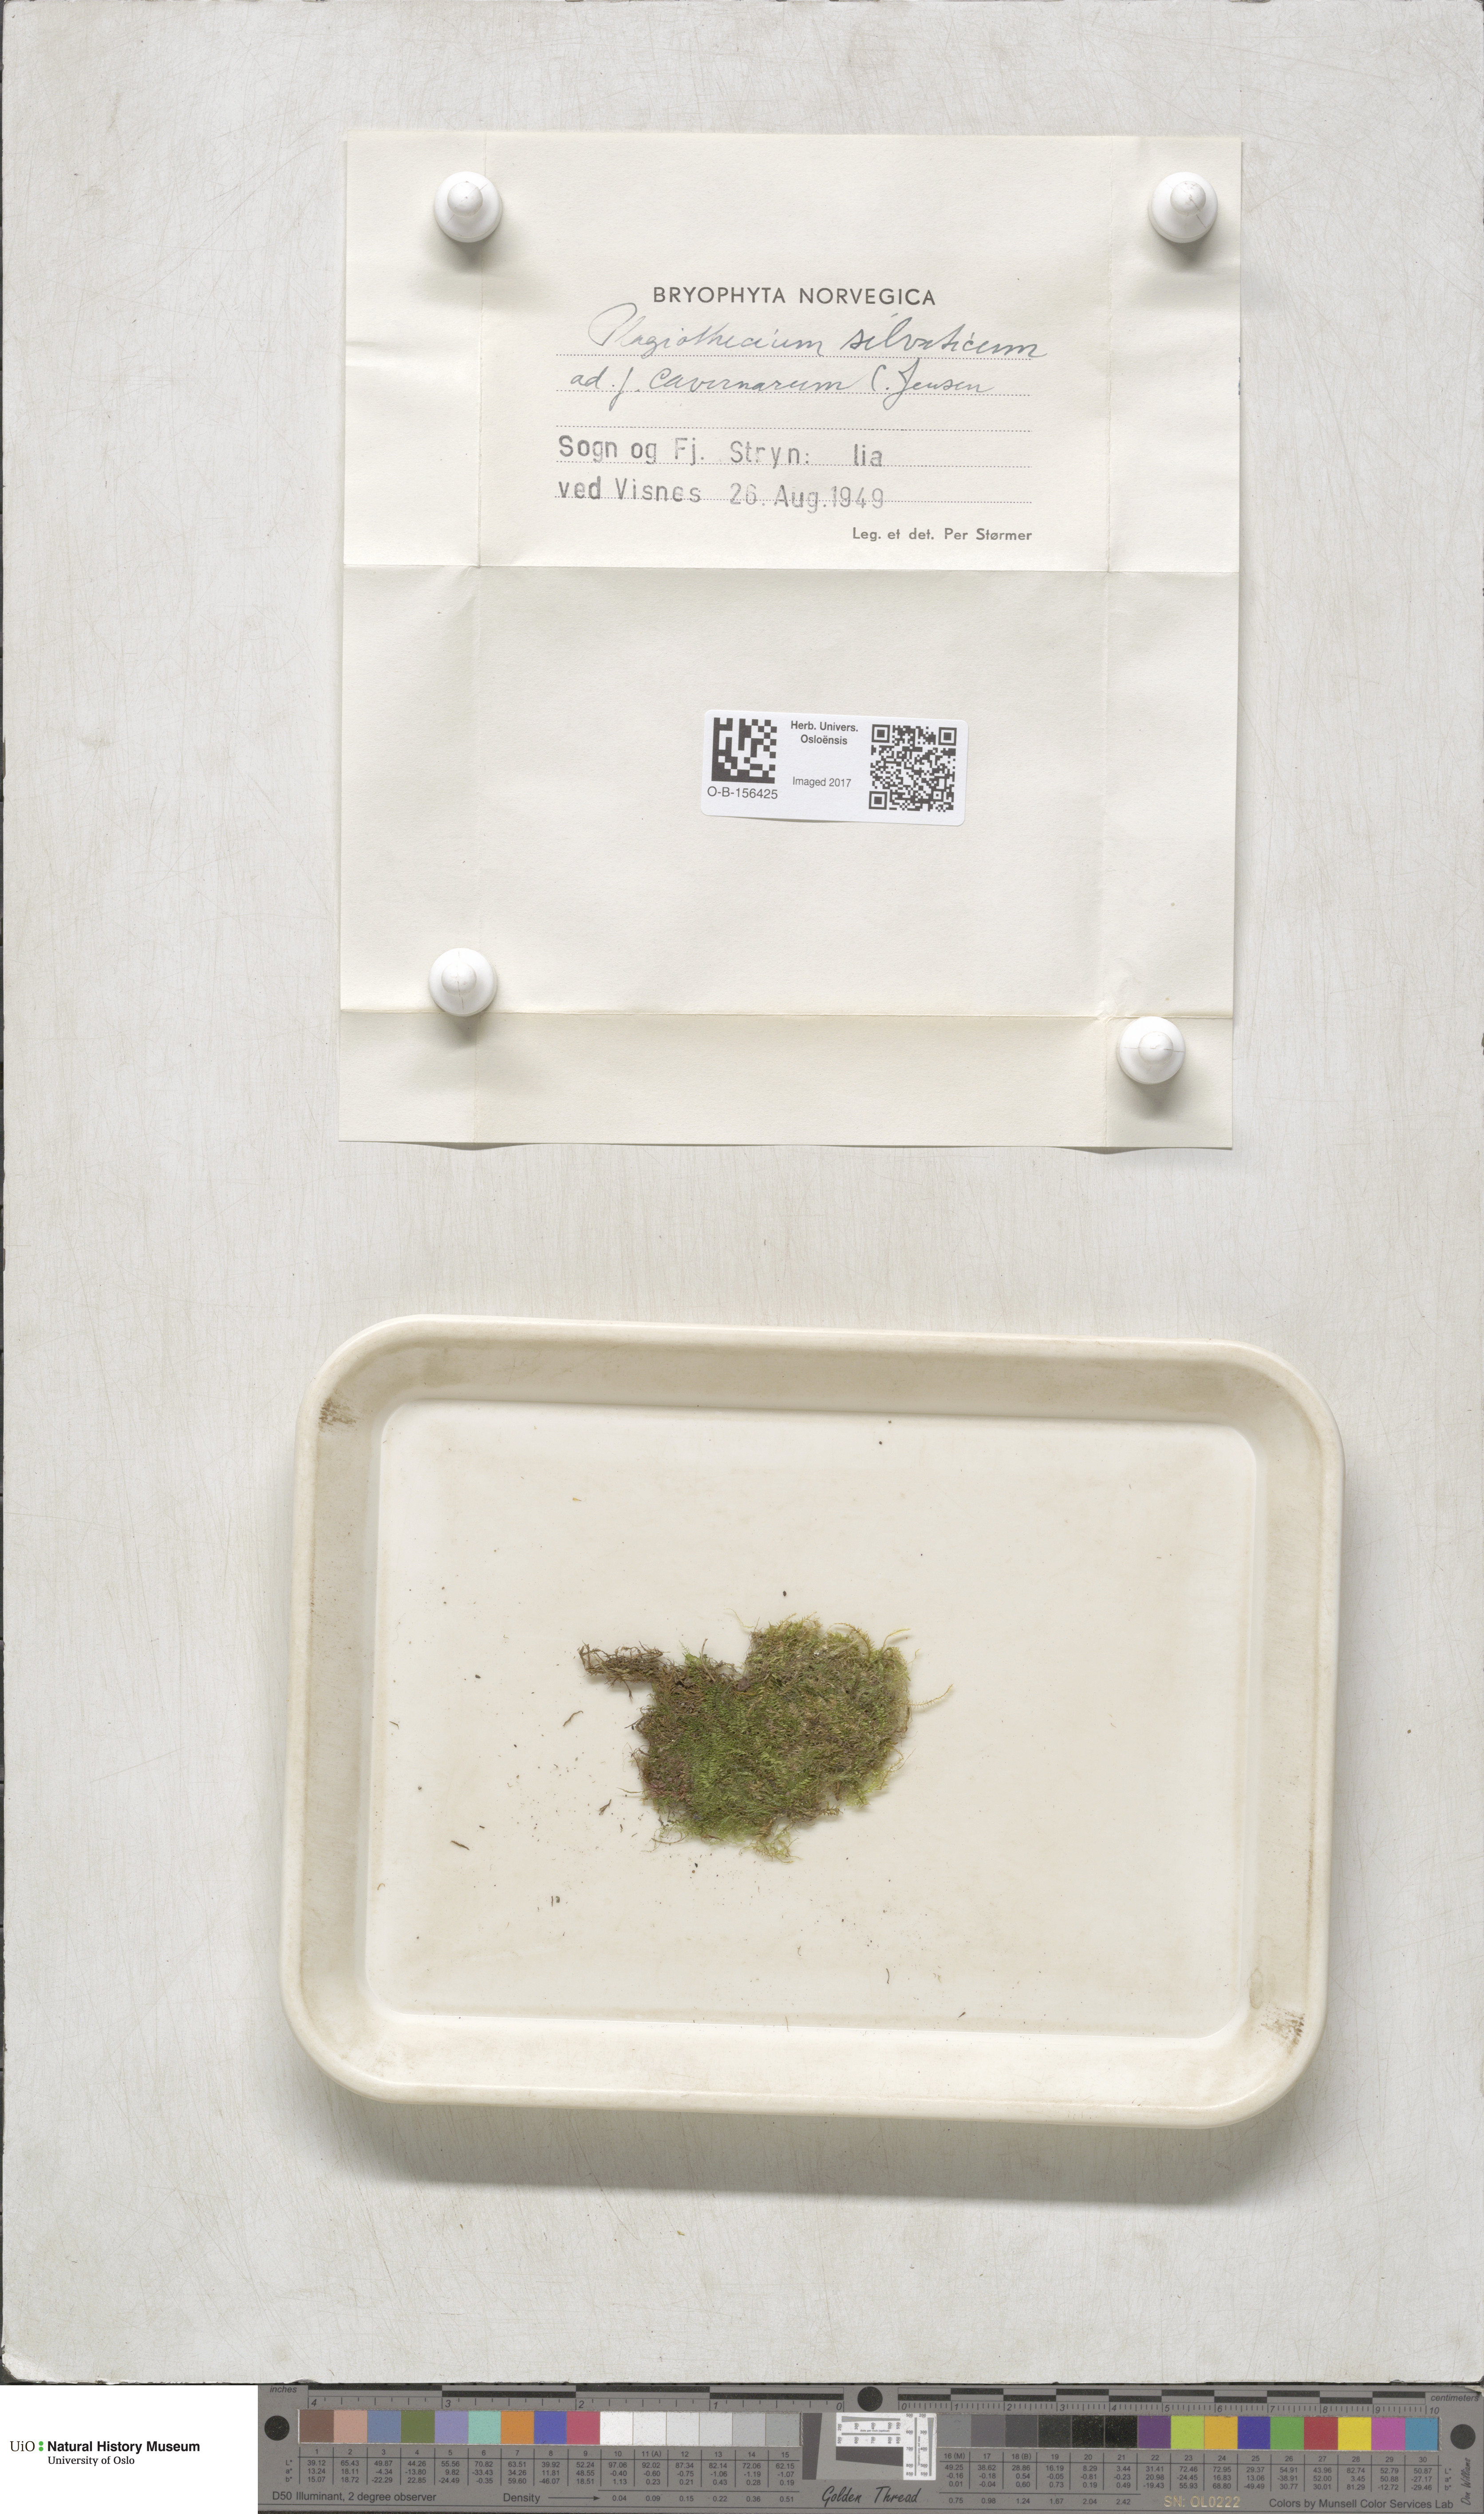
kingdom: Plantae
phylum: Bryophyta
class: Bryopsida
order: Hypnales
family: Plagiotheciaceae
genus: Plagiothecium
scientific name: Plagiothecium nemorale
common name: Woodsy silk-moss
